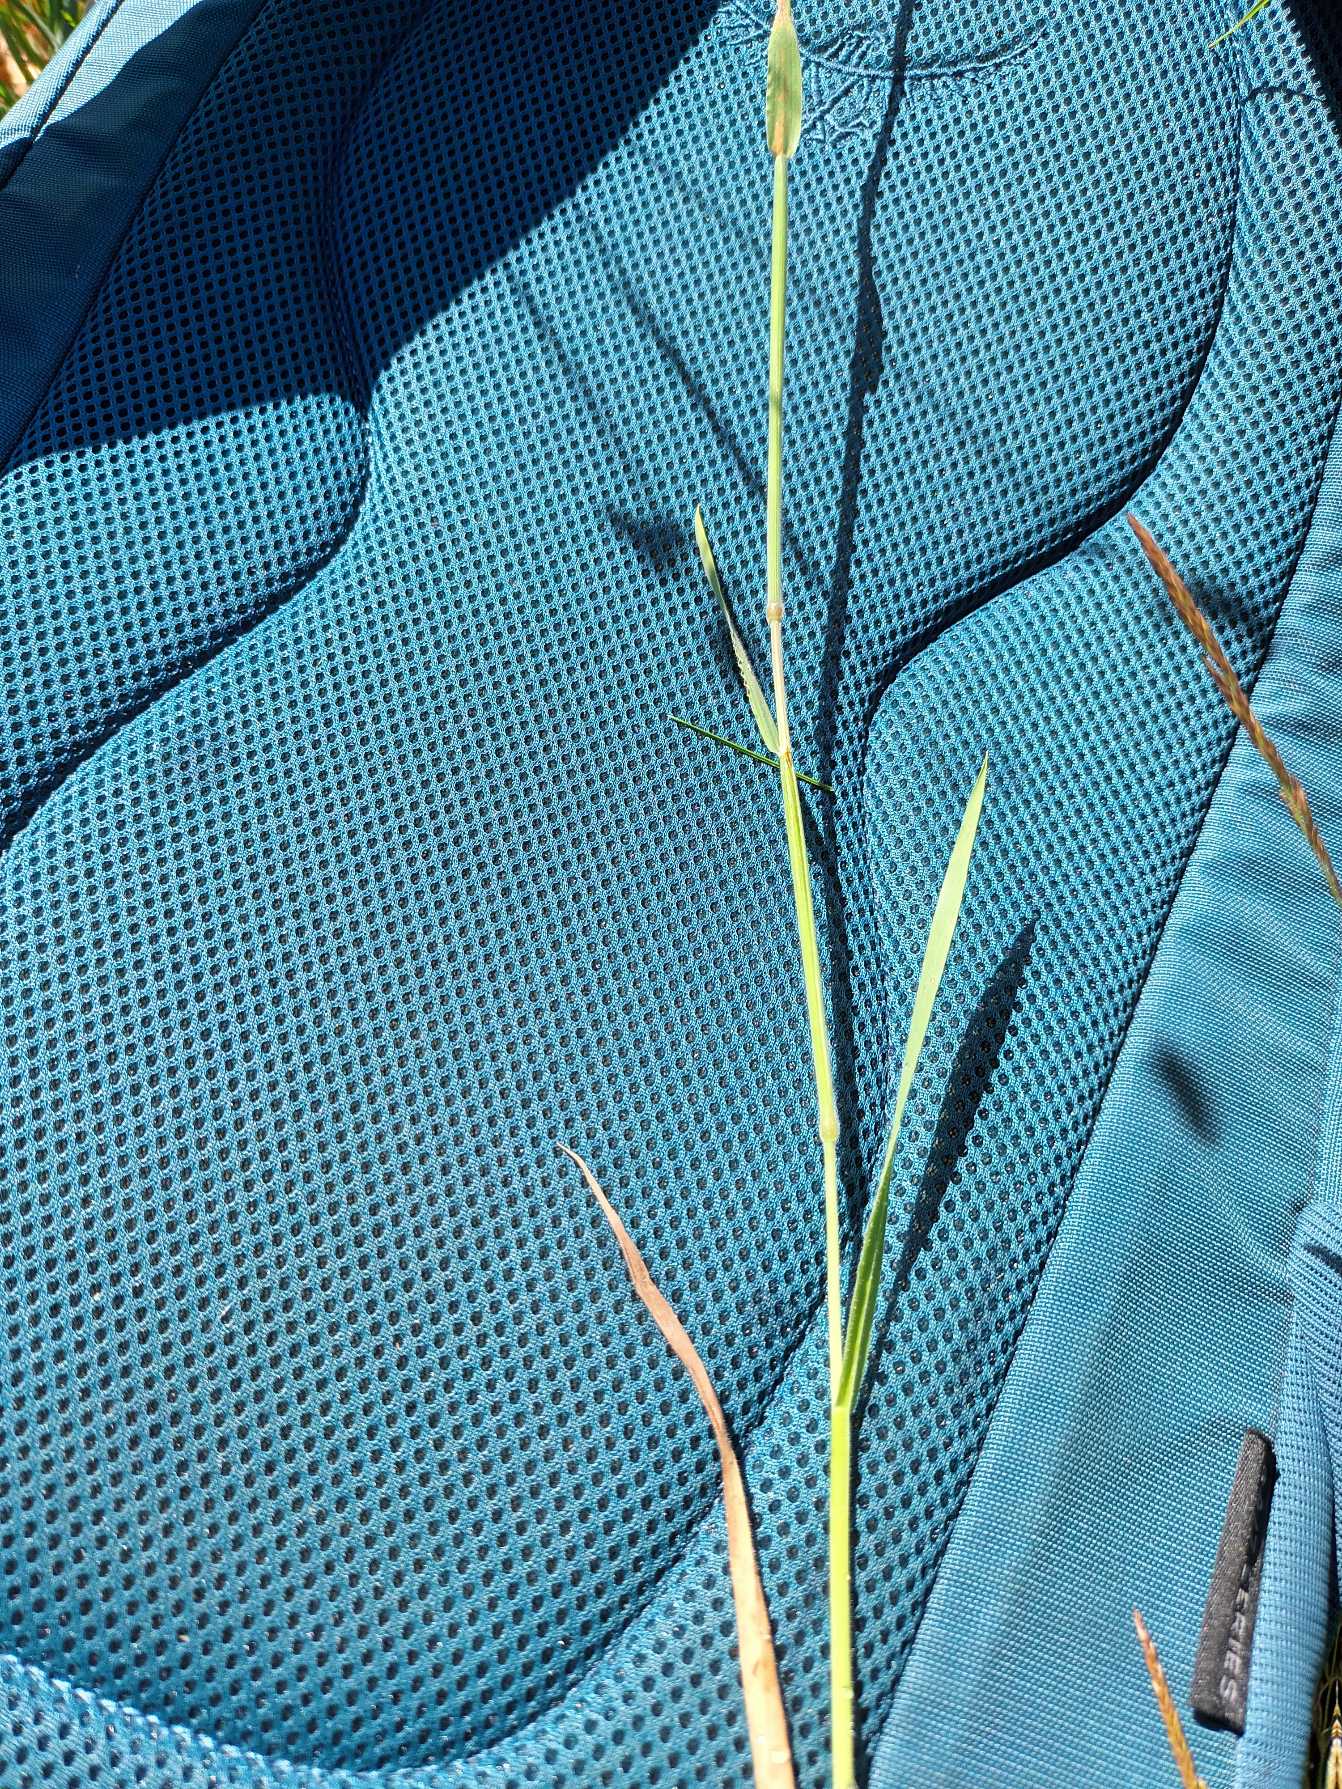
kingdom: Plantae
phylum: Tracheophyta
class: Liliopsida
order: Poales
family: Poaceae
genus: Holcus
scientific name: Holcus lanatus
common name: Fløjlsgræs
